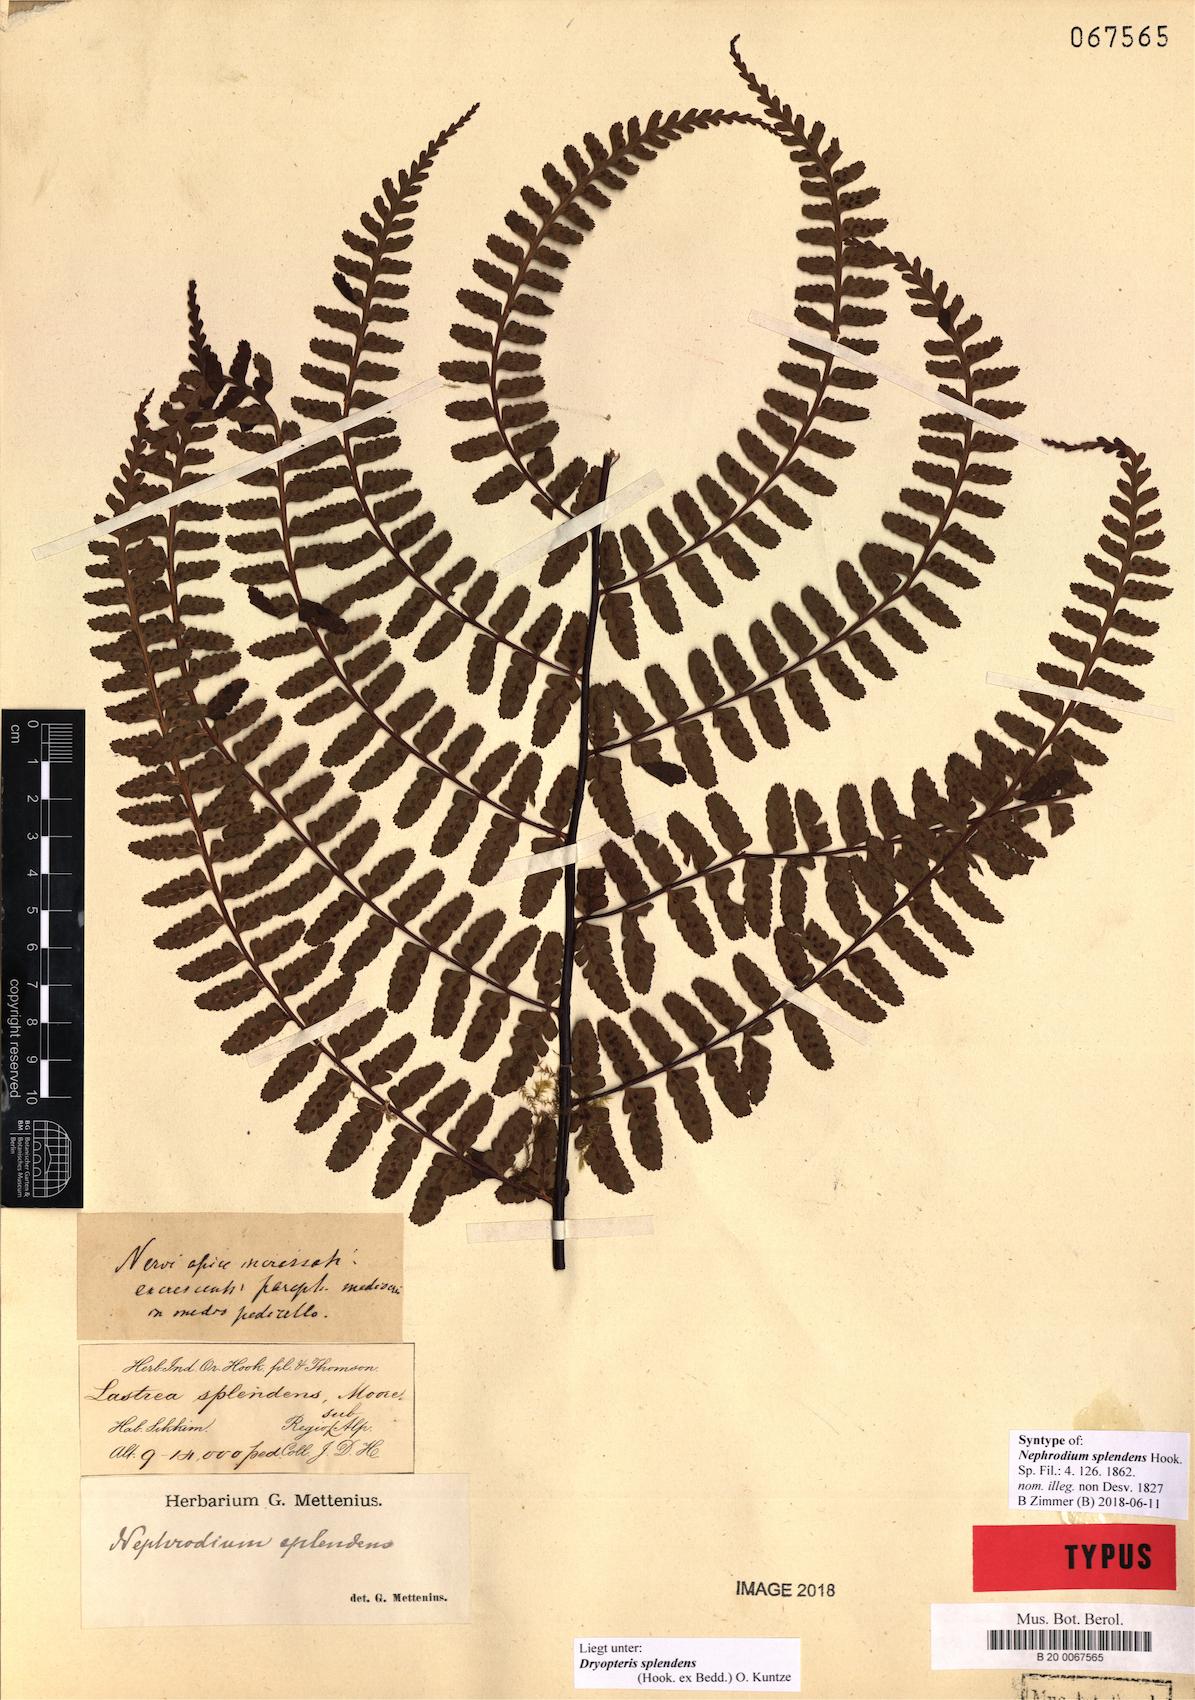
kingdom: Plantae
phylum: Tracheophyta
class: Polypodiopsida
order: Polypodiales
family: Dryopteridaceae
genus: Dryopteris
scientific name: Dryopteris splendens
